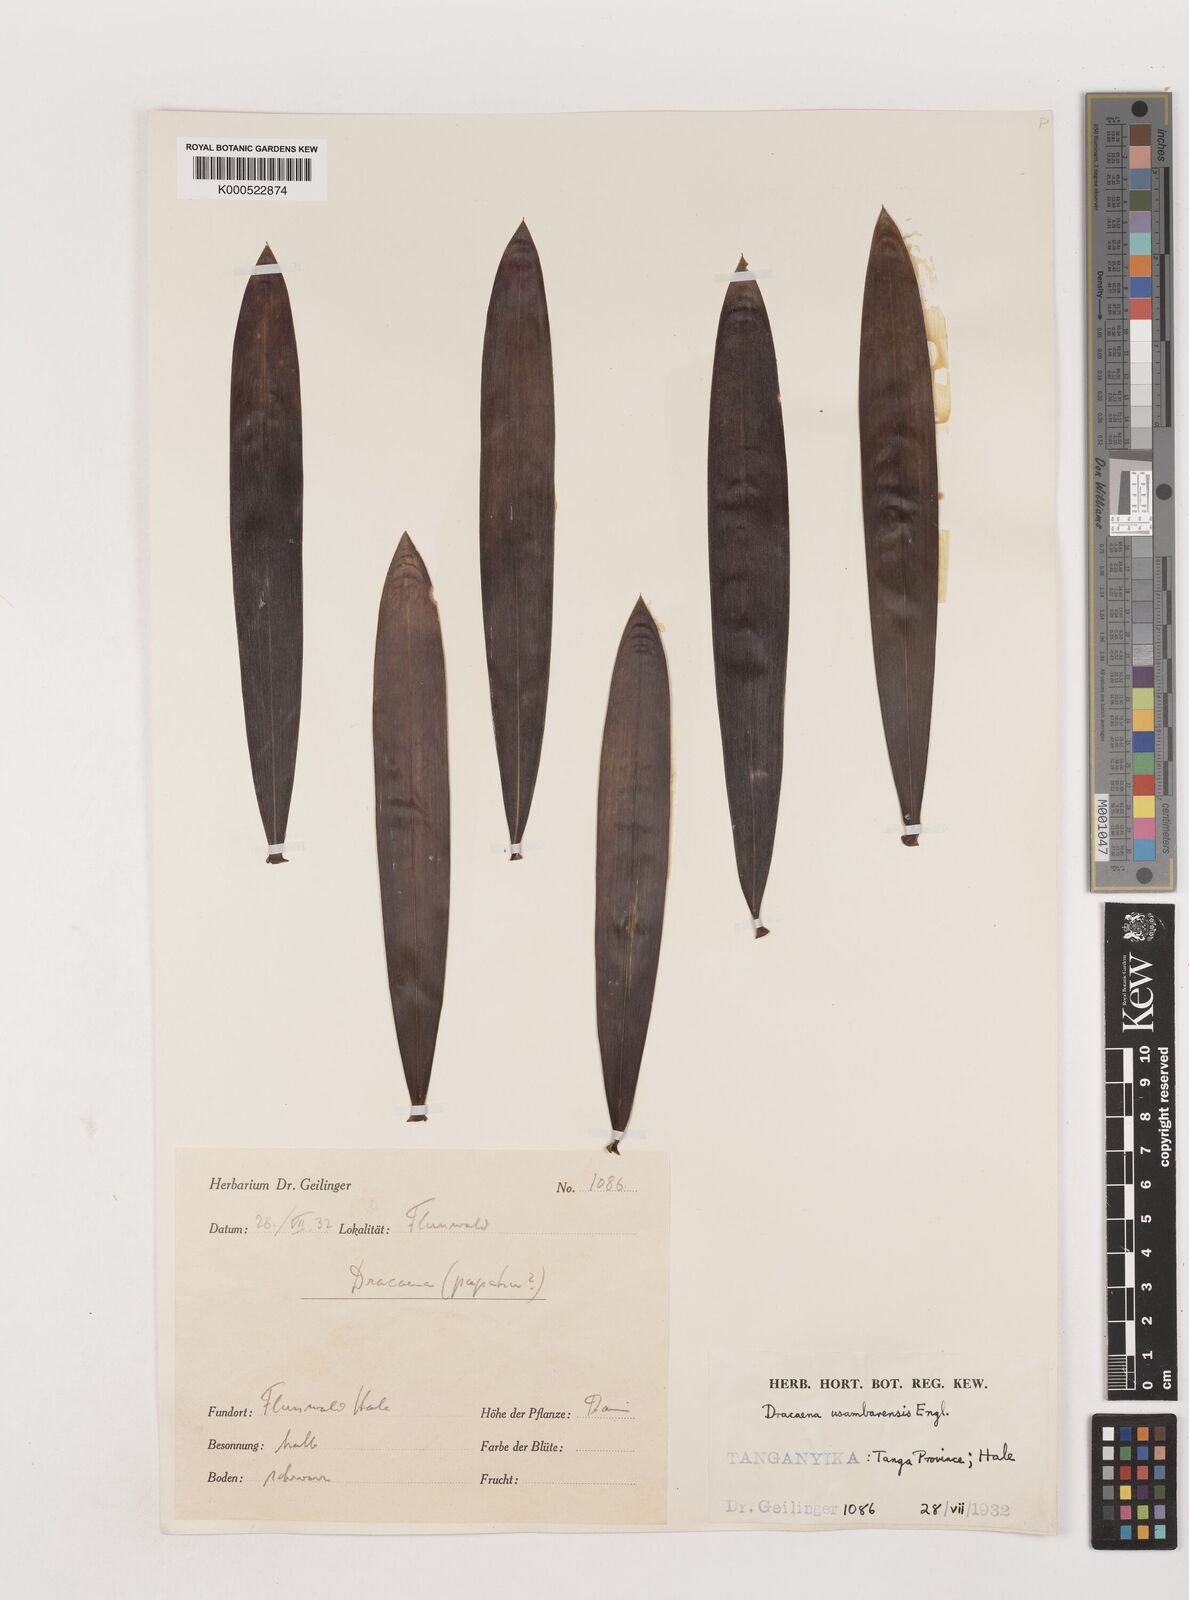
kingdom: Plantae
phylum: Tracheophyta
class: Liliopsida
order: Asparagales
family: Asparagaceae
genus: Dracaena
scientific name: Dracaena usambarensis
